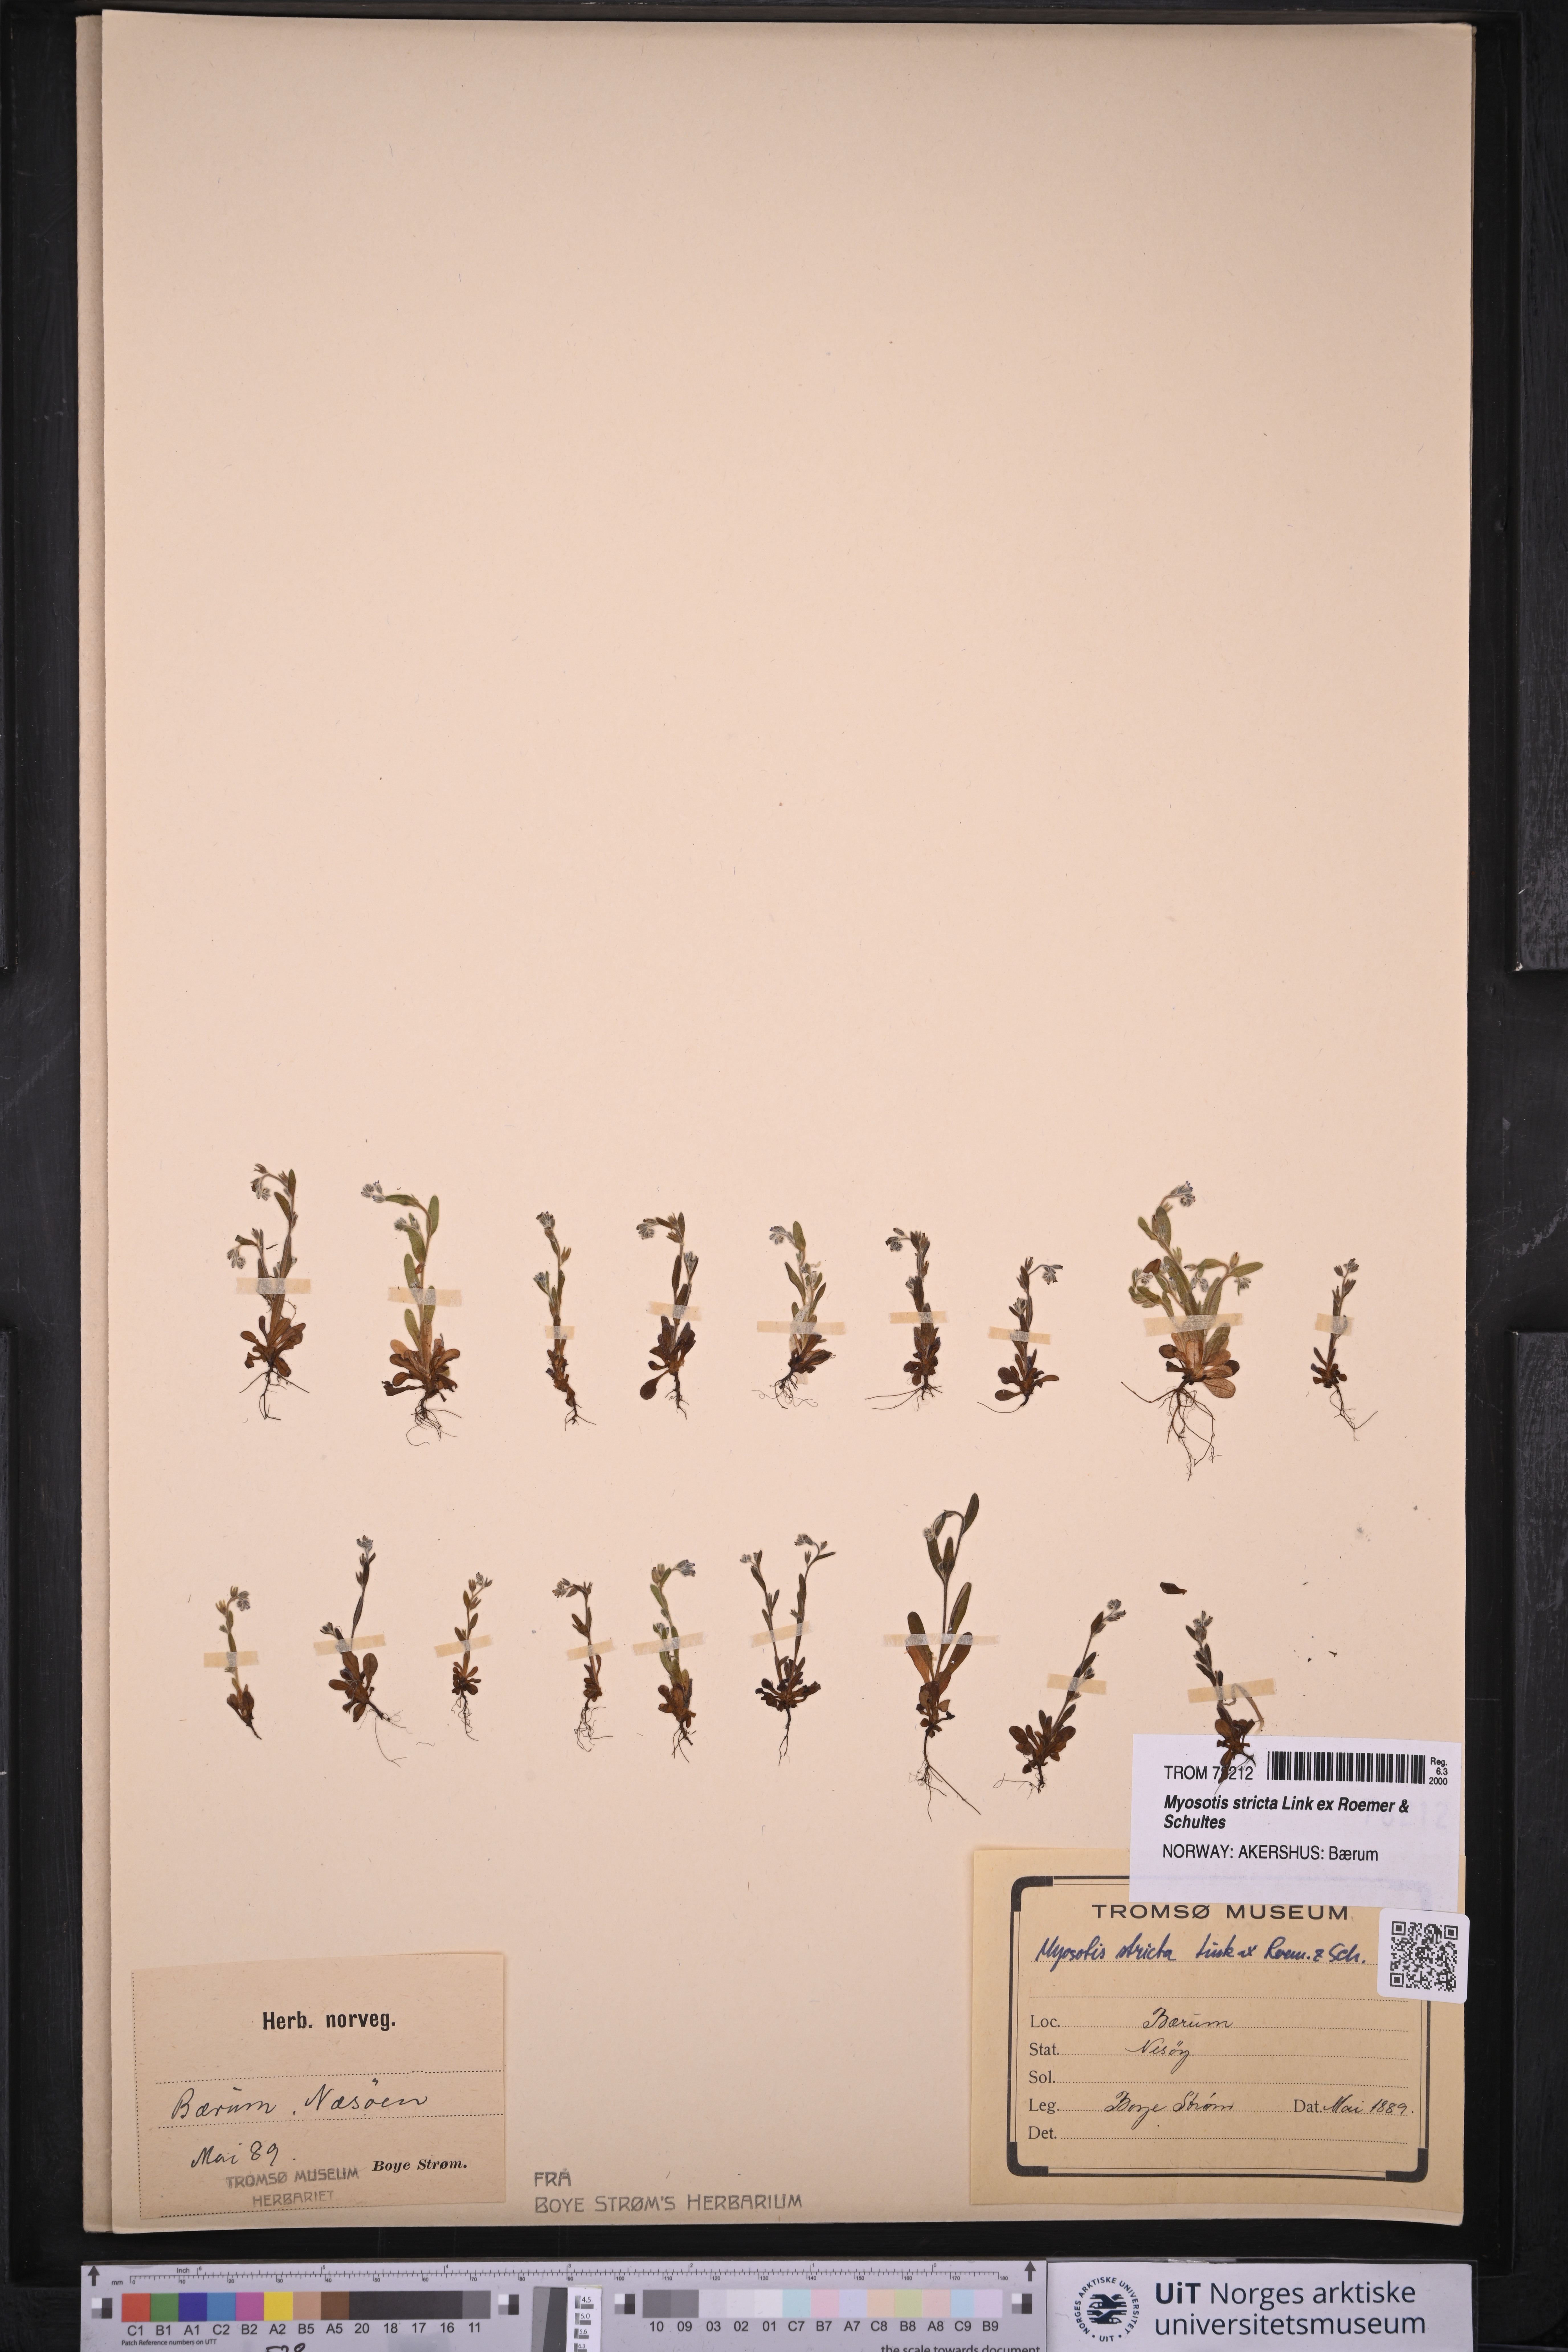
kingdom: Plantae
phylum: Tracheophyta
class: Magnoliopsida
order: Boraginales
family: Boraginaceae
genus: Myosotis
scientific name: Myosotis stricta
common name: Strict forget-me-not
